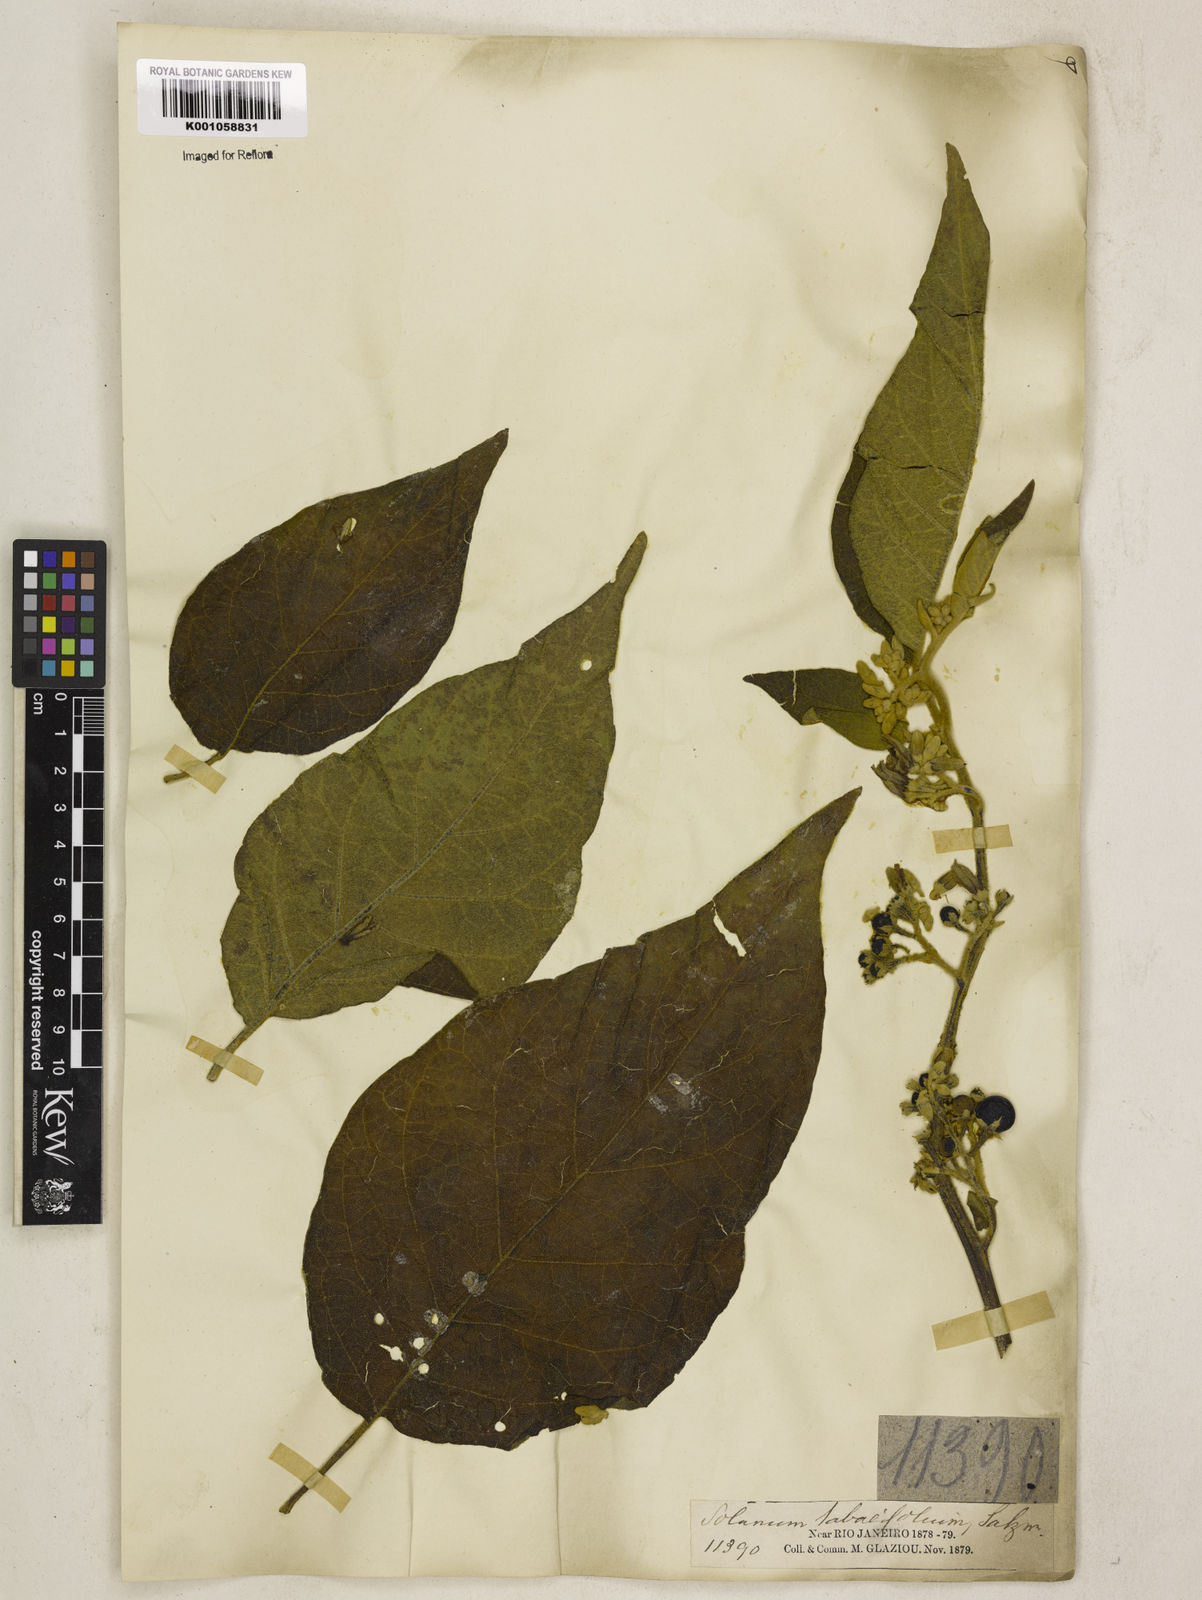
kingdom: Plantae
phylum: Tracheophyta
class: Magnoliopsida
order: Solanales
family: Solanaceae
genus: Solanum
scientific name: Solanum scuticum
